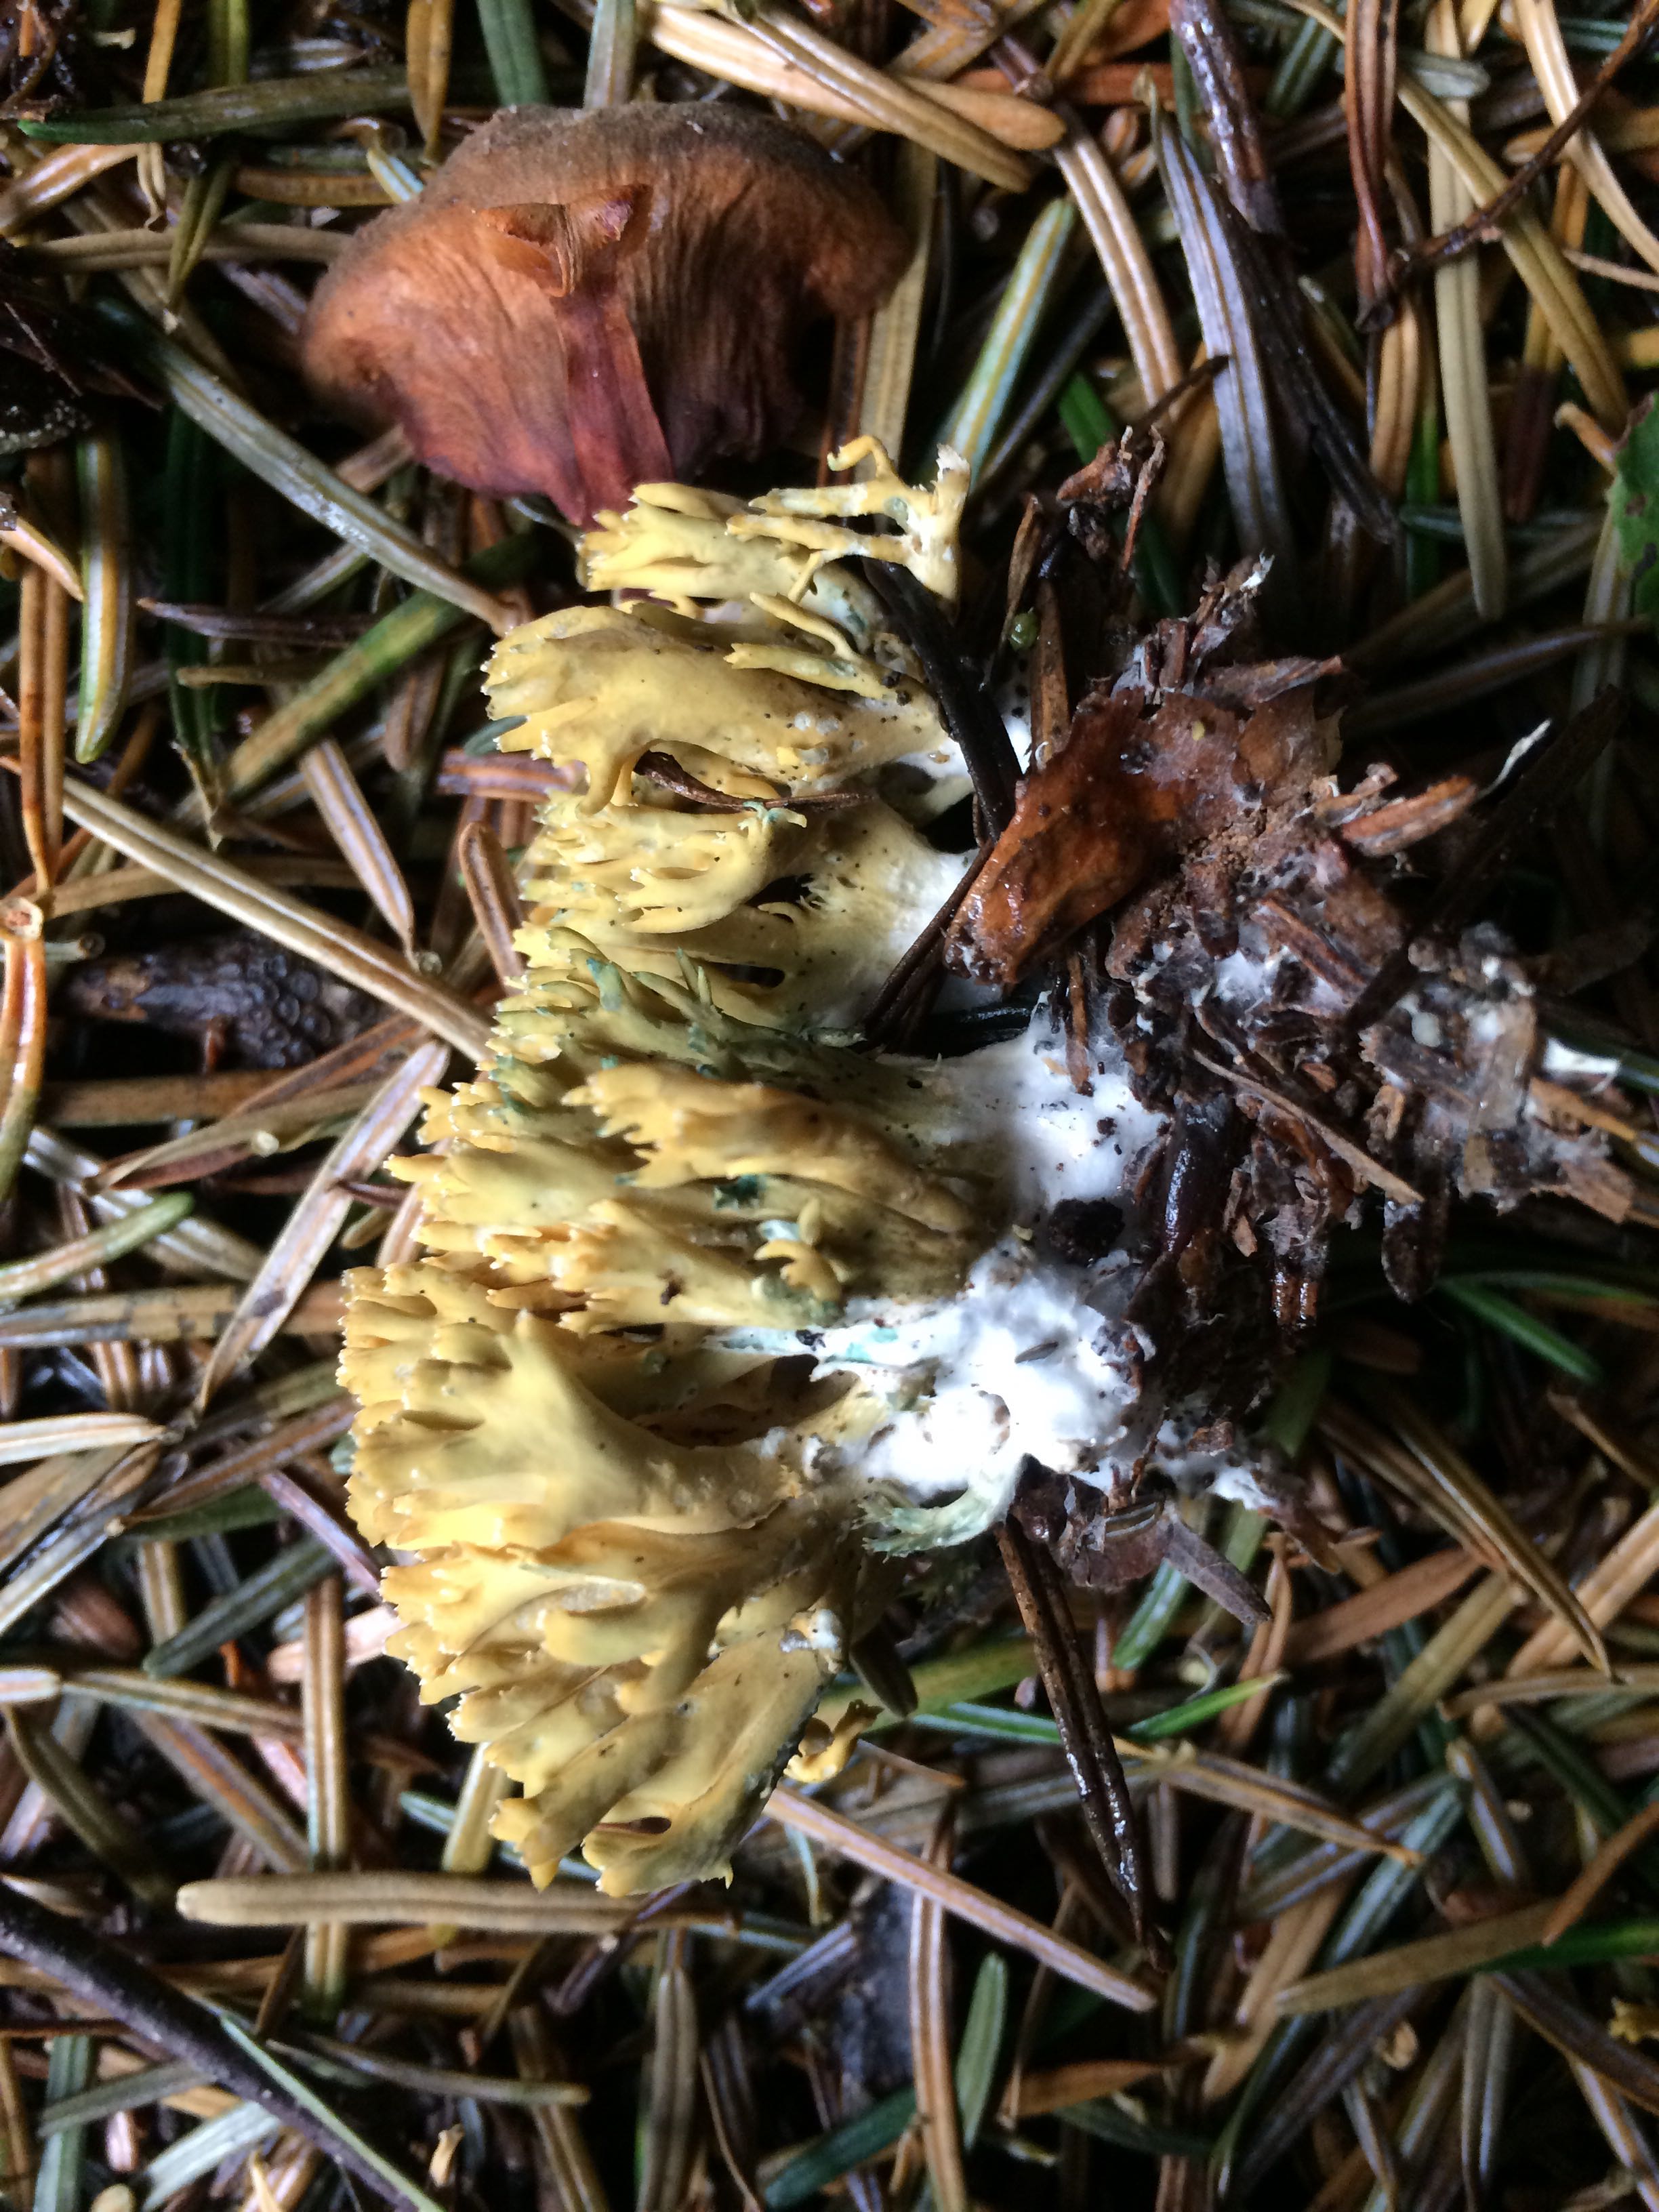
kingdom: Fungi
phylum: Basidiomycota
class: Agaricomycetes
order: Gomphales
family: Gomphaceae
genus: Phaeoclavulina
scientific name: Phaeoclavulina abietina
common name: gulgrøn koralsvamp
